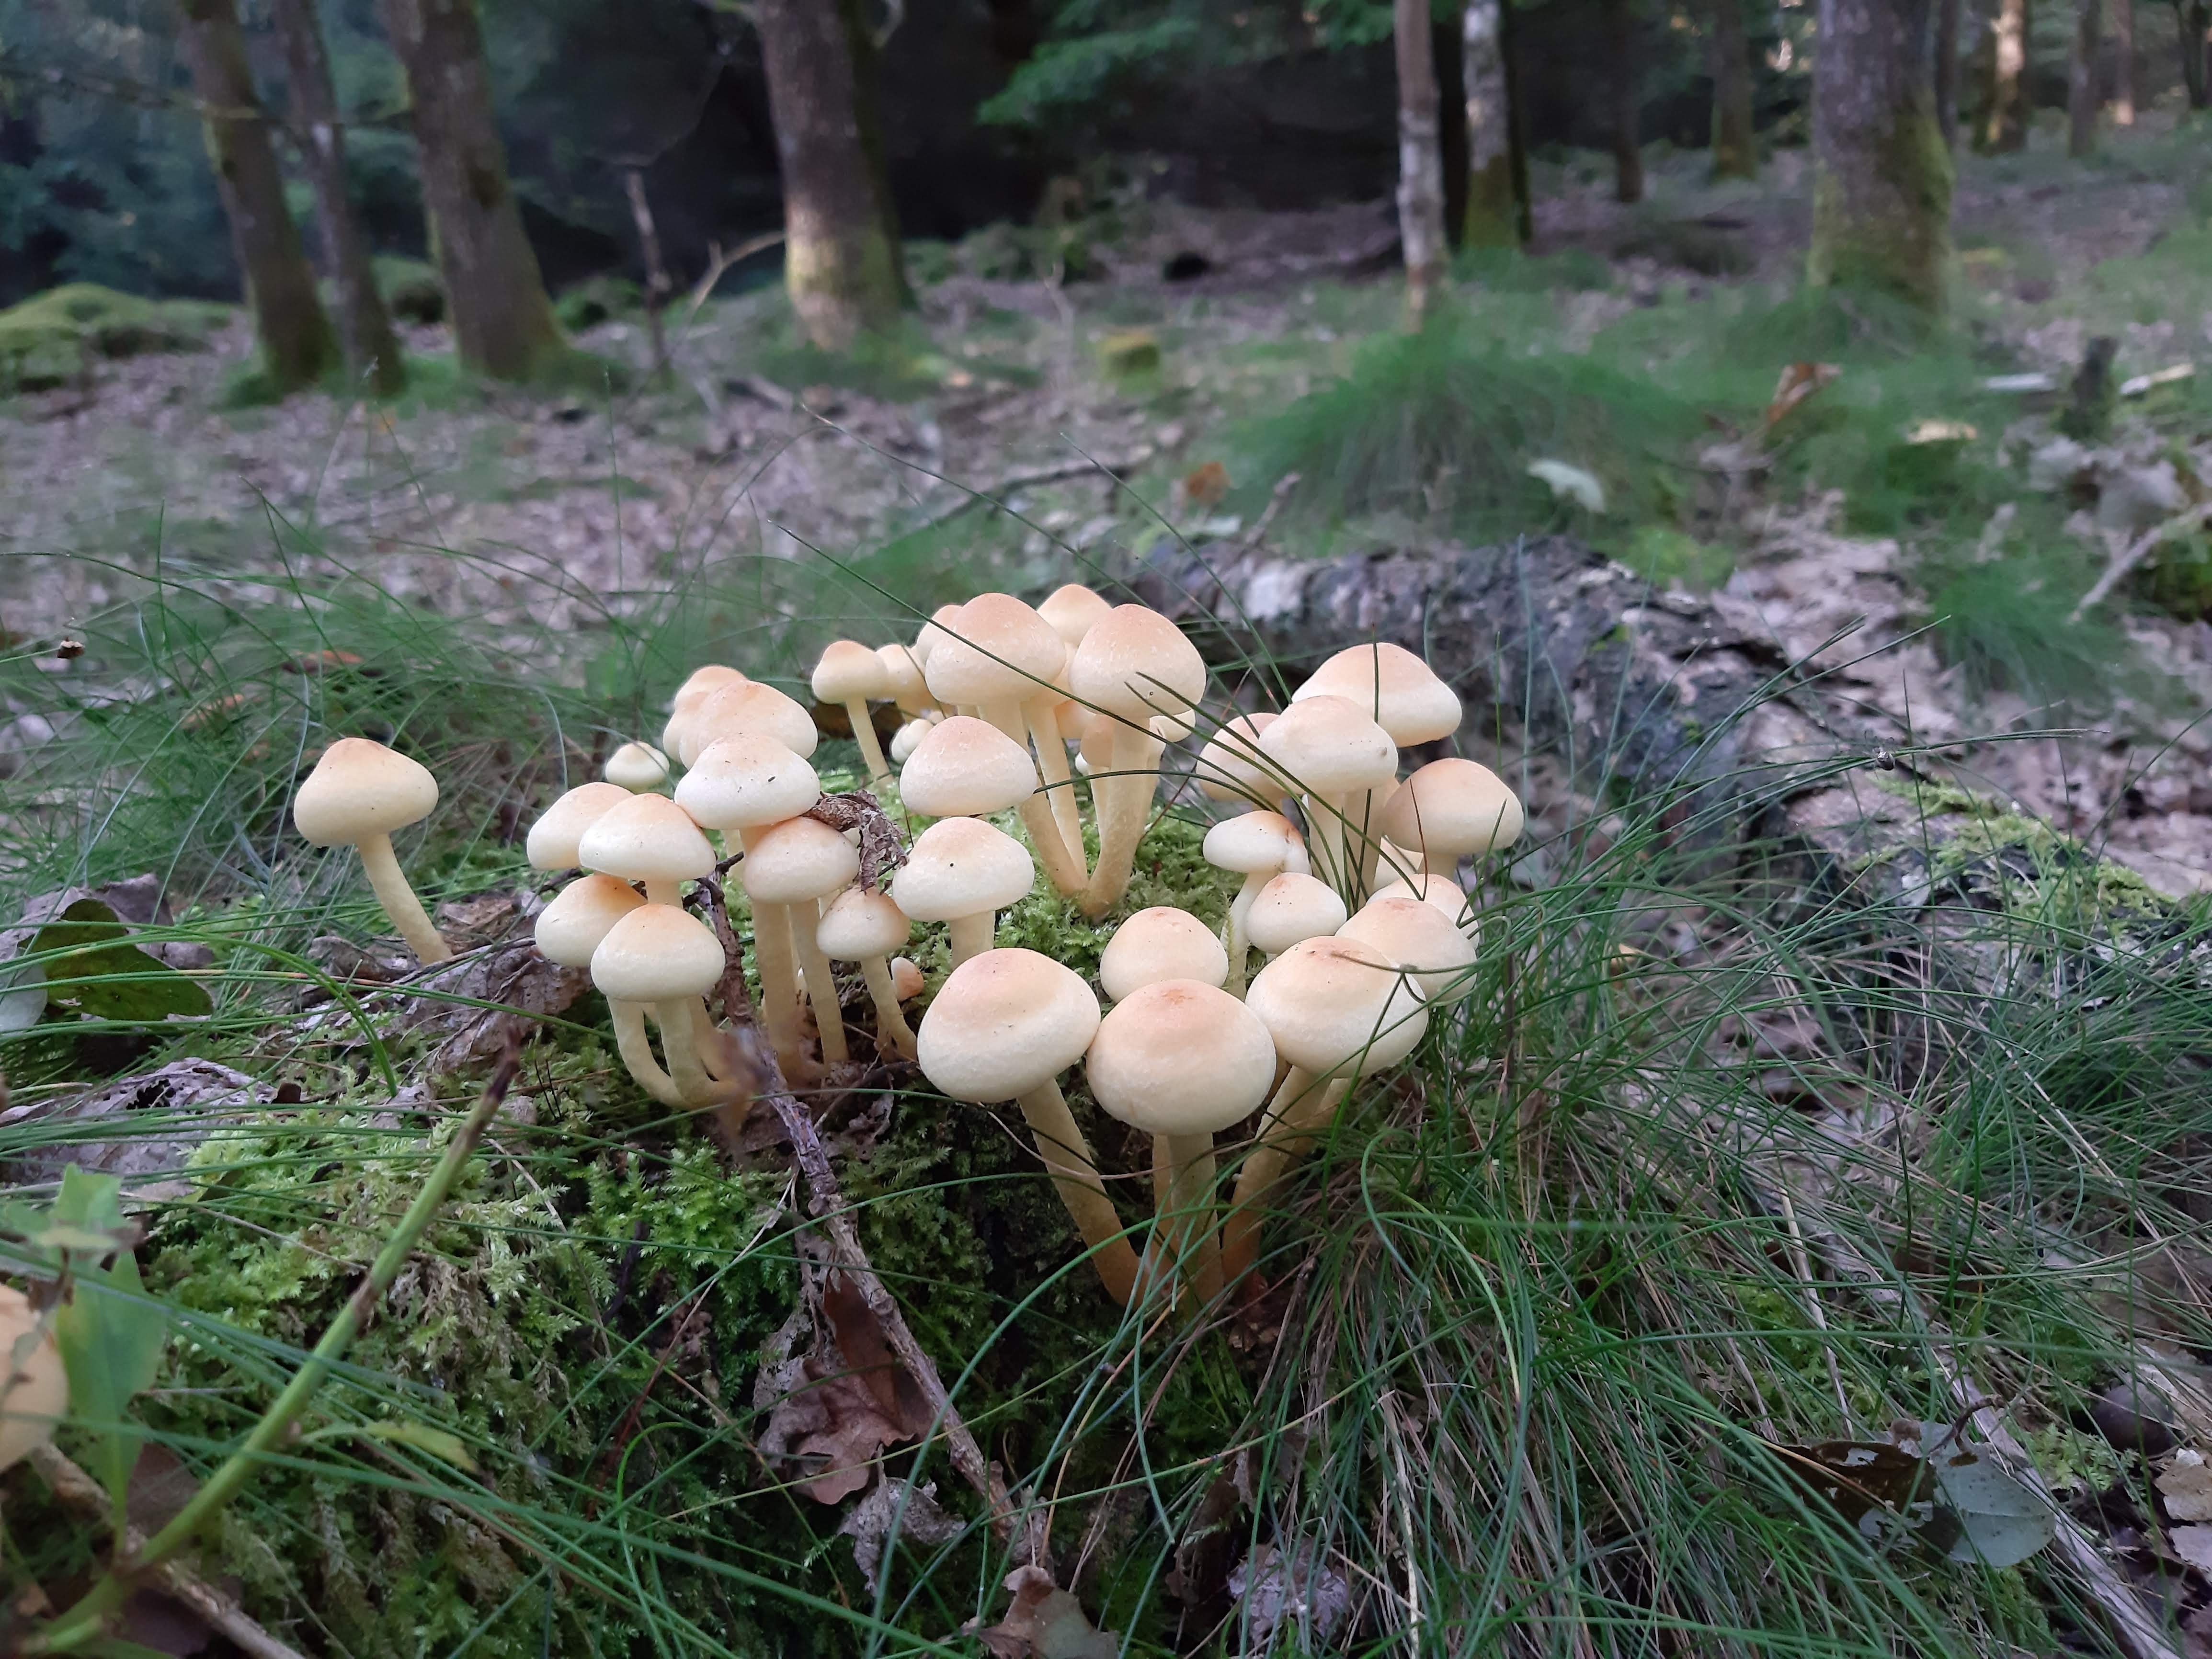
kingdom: Fungi
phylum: Basidiomycota
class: Agaricomycetes
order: Agaricales
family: Strophariaceae
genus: Hypholoma
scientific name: Hypholoma
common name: svovlhat
